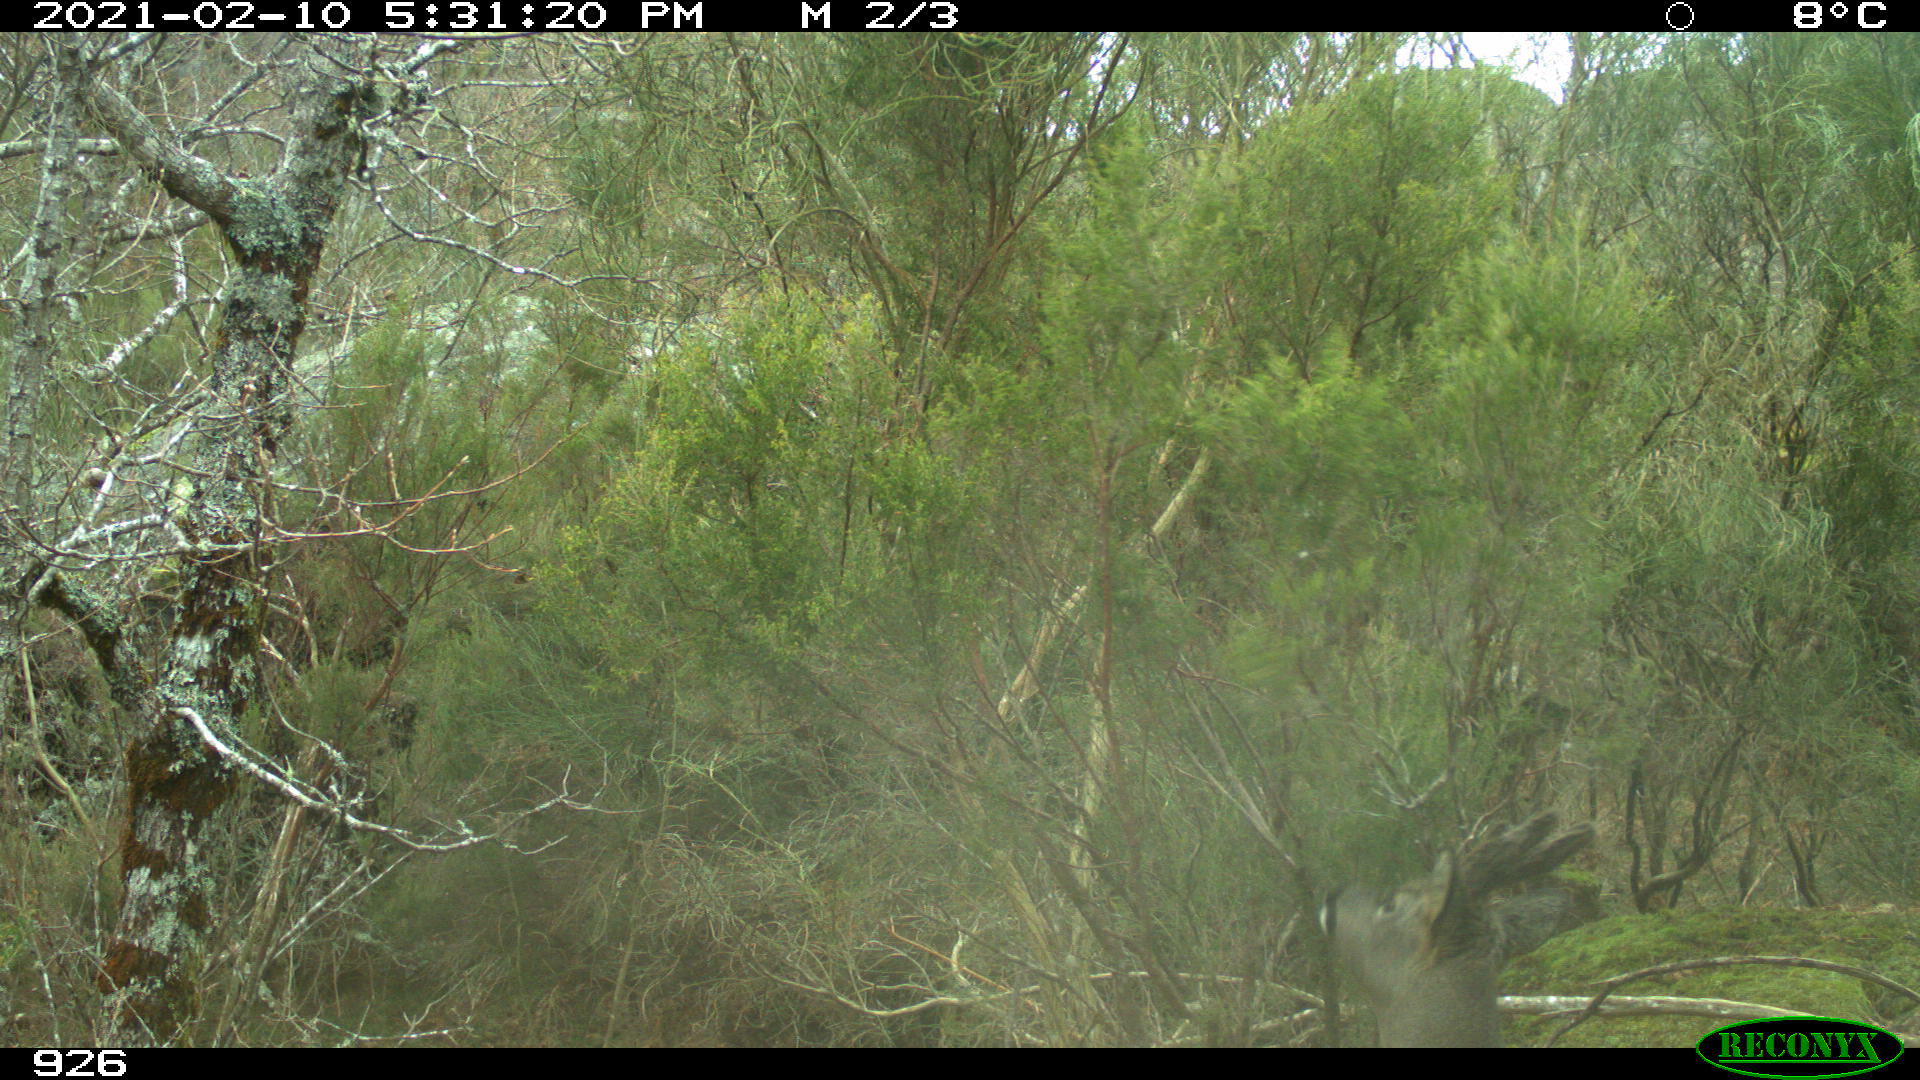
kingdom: Animalia
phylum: Chordata
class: Mammalia
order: Artiodactyla
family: Cervidae
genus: Capreolus
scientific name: Capreolus capreolus
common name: Western roe deer
